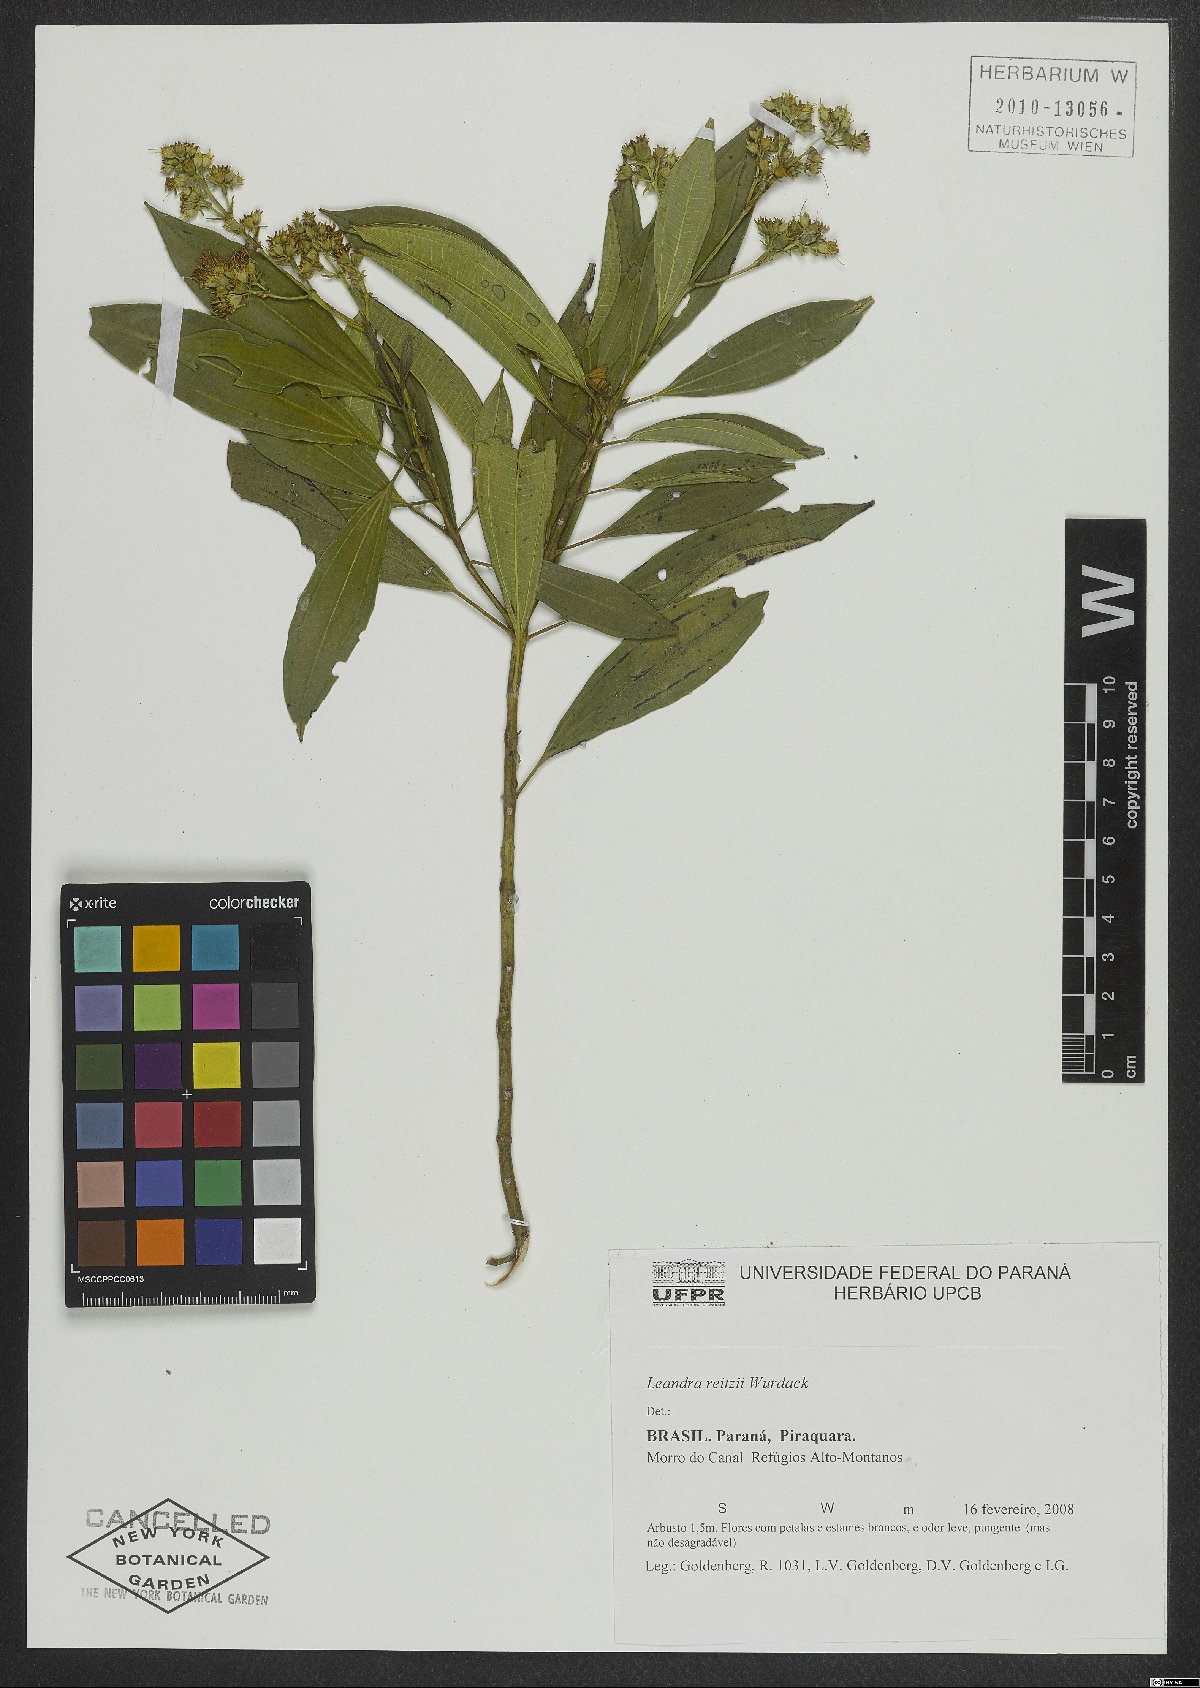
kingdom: Plantae
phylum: Tracheophyta
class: Magnoliopsida
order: Myrtales
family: Melastomataceae
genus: Miconia
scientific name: Miconia reitzii
